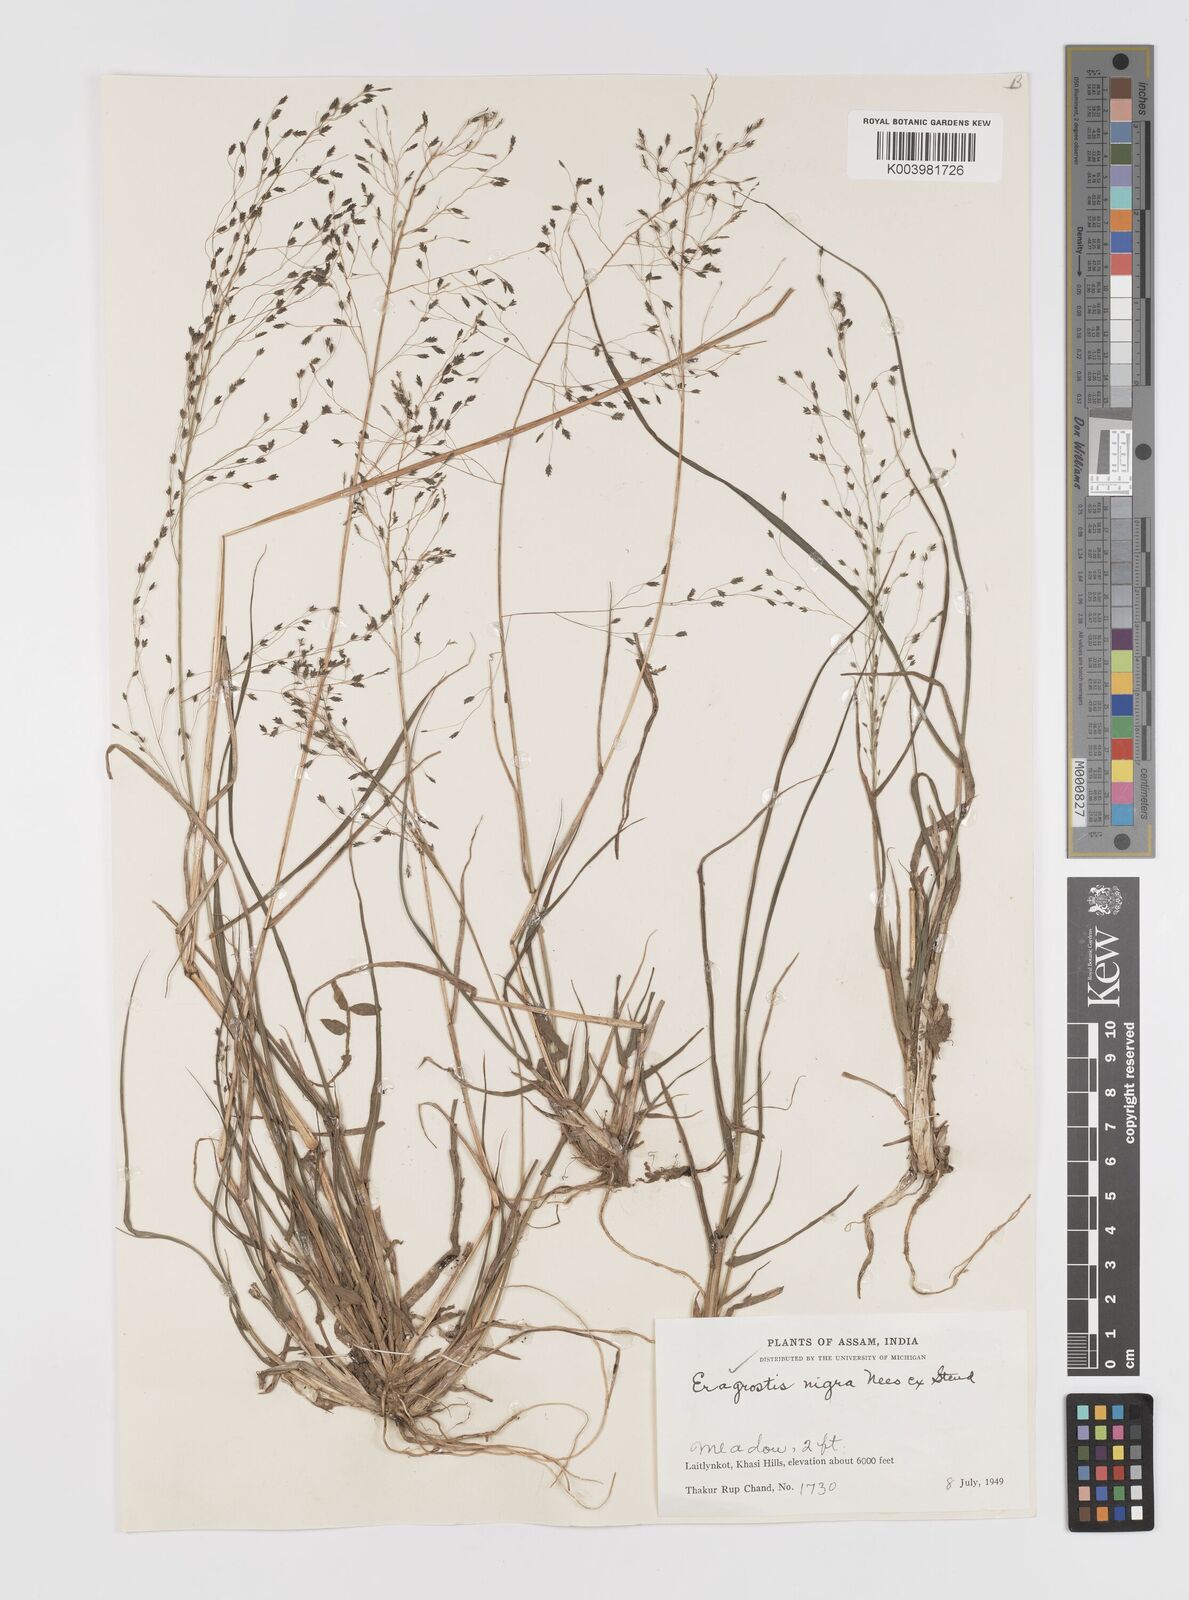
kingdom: Plantae
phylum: Tracheophyta
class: Liliopsida
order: Poales
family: Poaceae
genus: Eragrostis
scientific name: Eragrostis nigra
